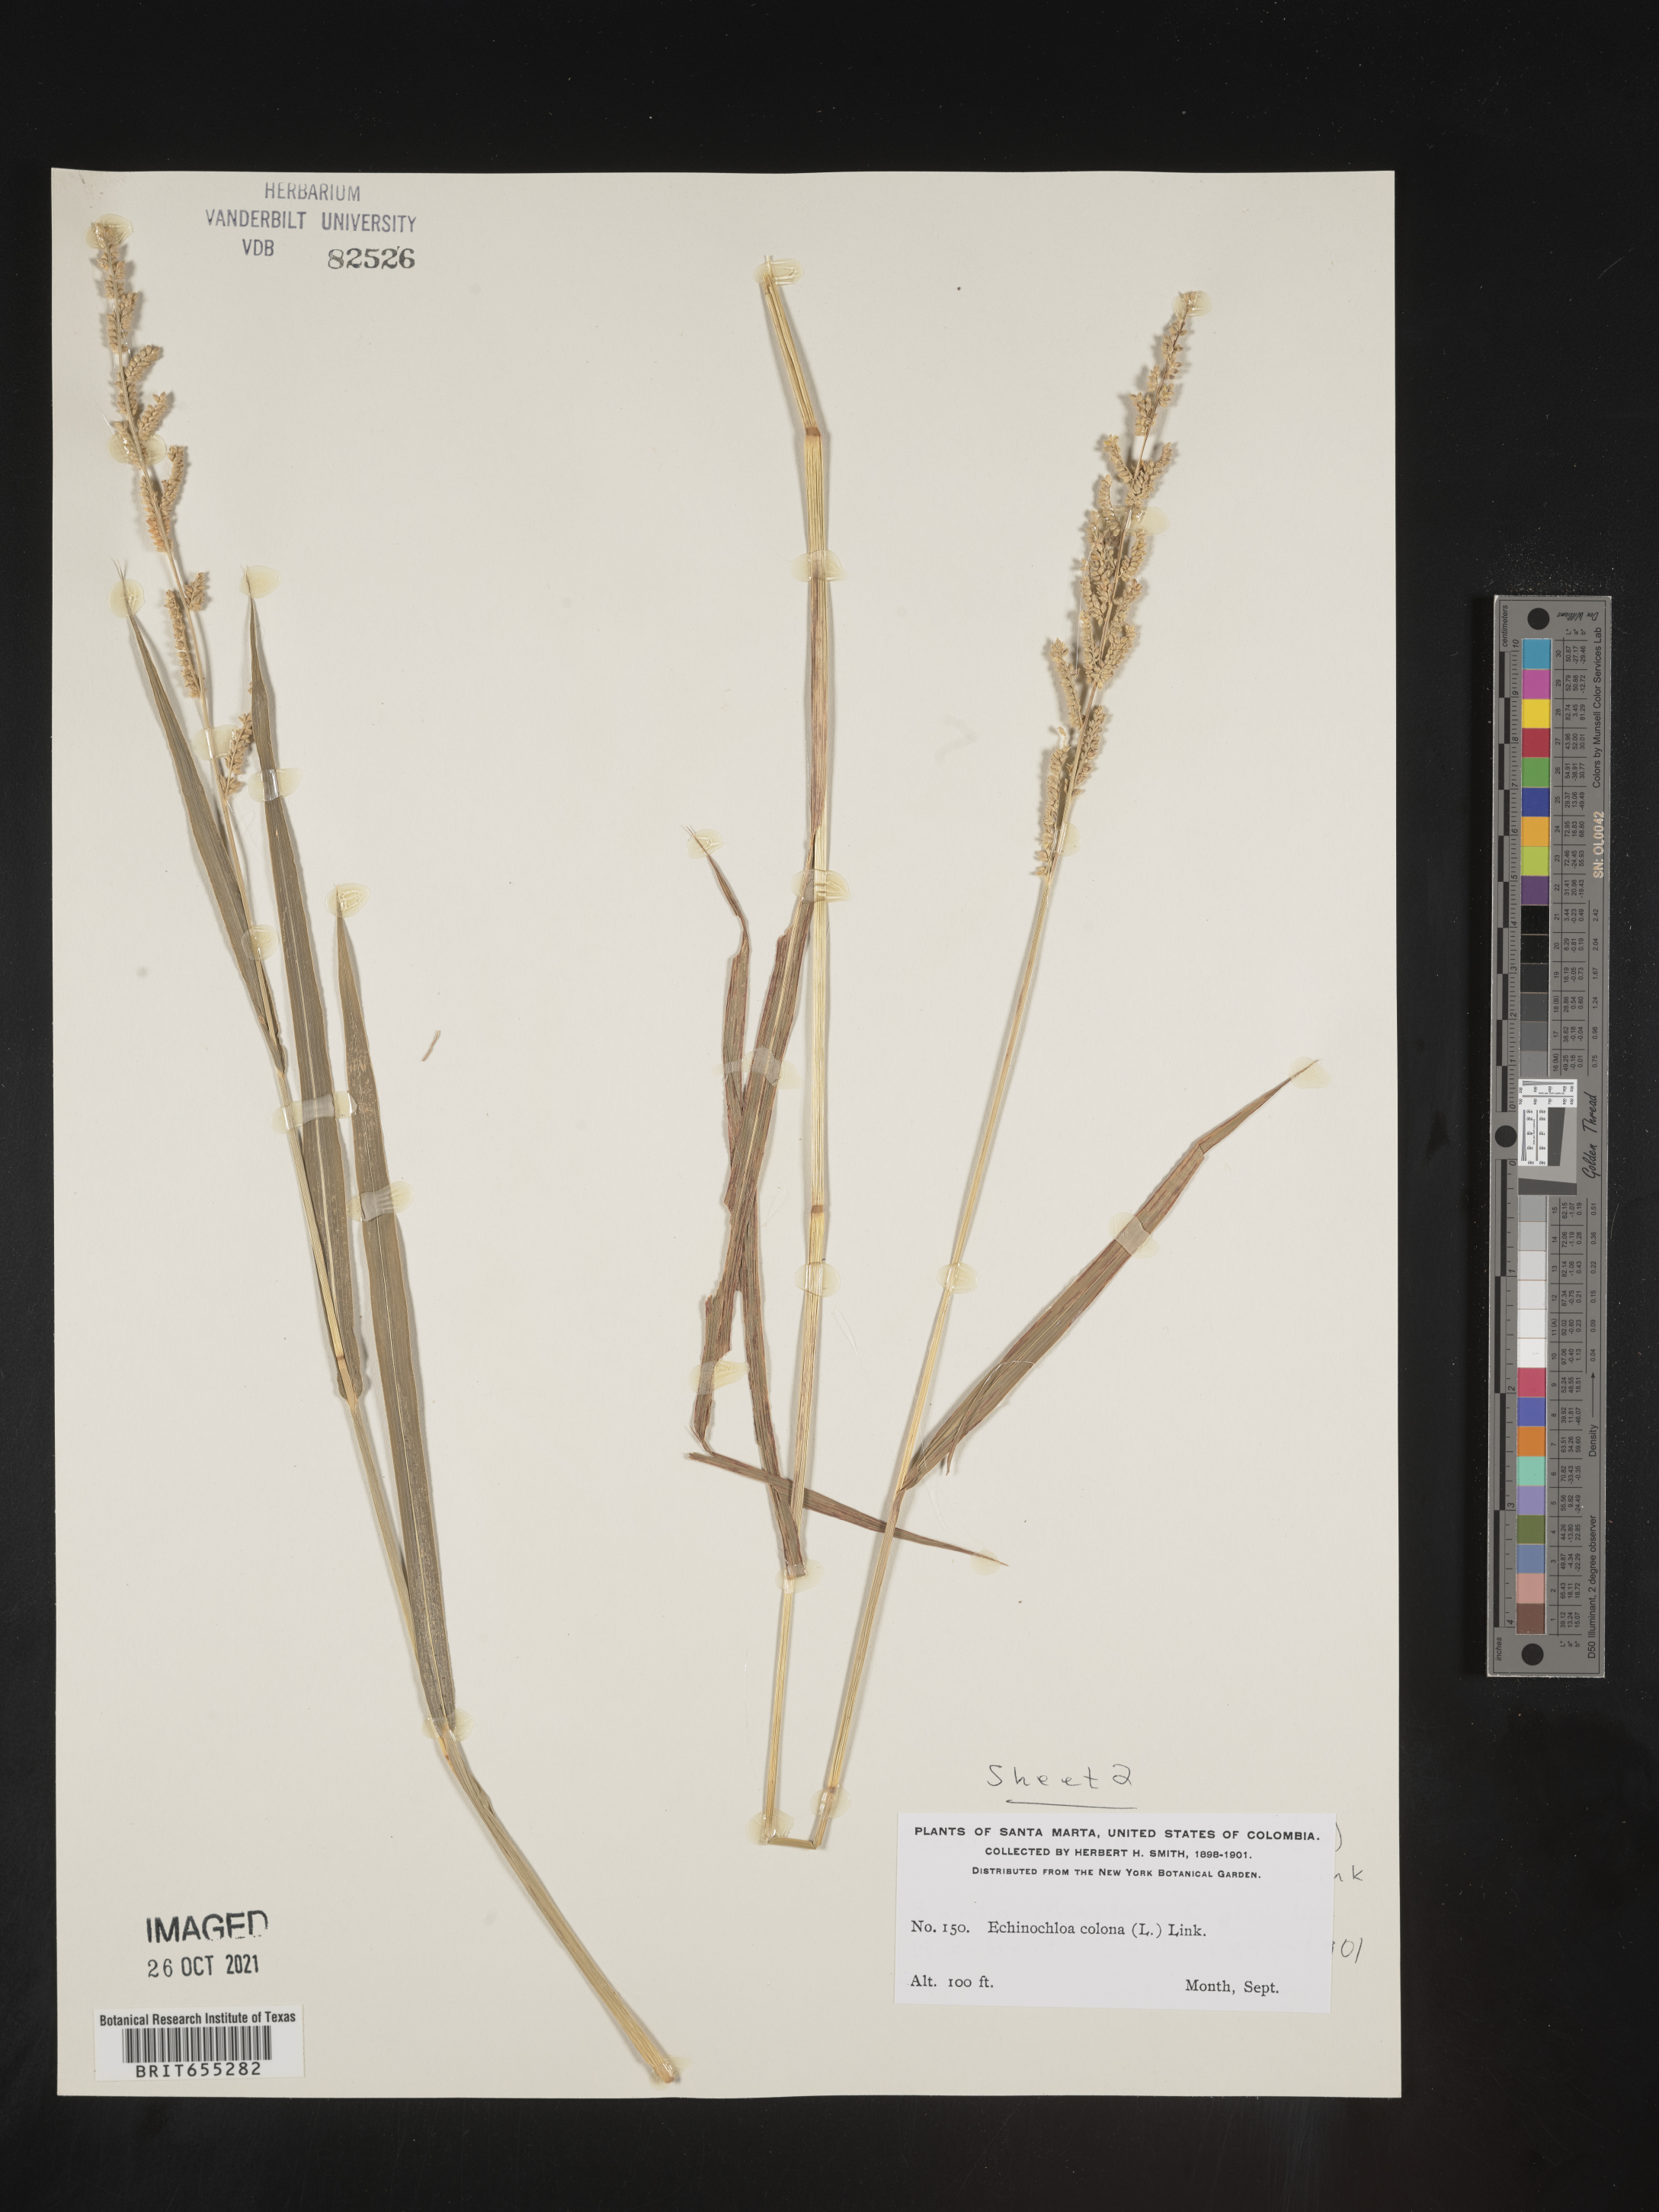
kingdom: Plantae
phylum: Tracheophyta
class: Liliopsida
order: Poales
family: Poaceae
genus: Echinochloa
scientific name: Echinochloa
